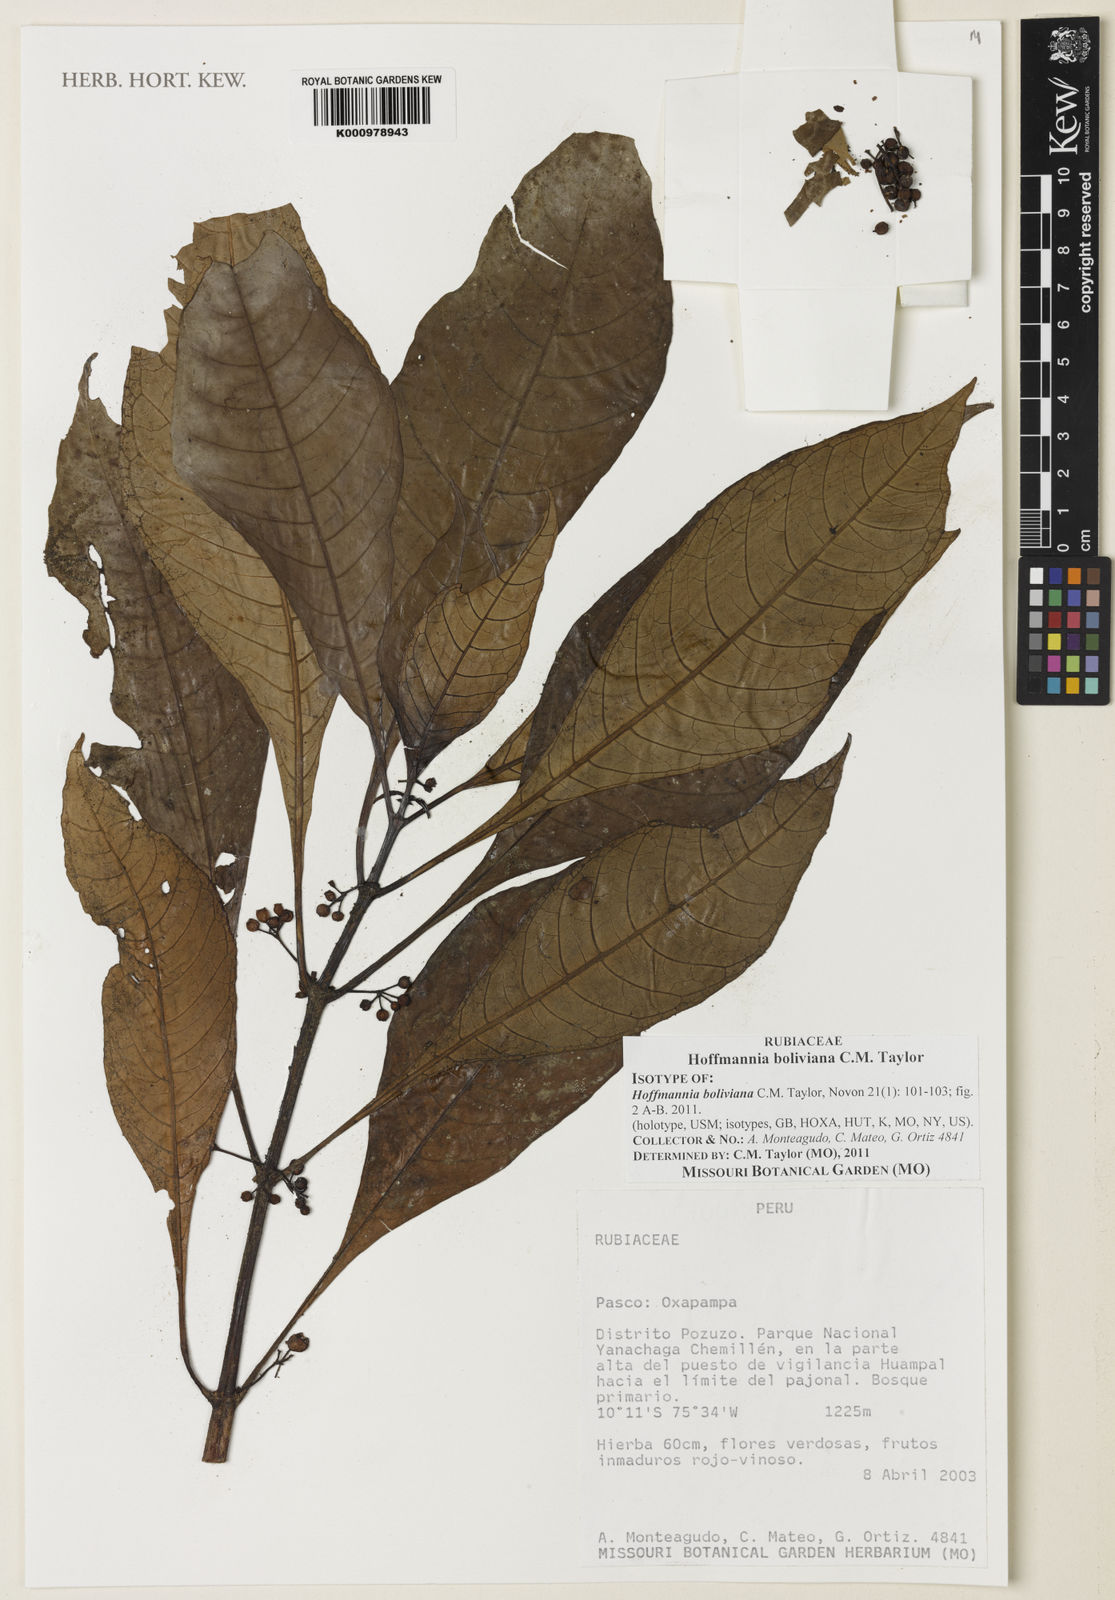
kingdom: Plantae
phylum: Tracheophyta
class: Magnoliopsida
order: Gentianales
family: Rubiaceae
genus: Hoffmannia
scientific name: Hoffmannia boliviana
